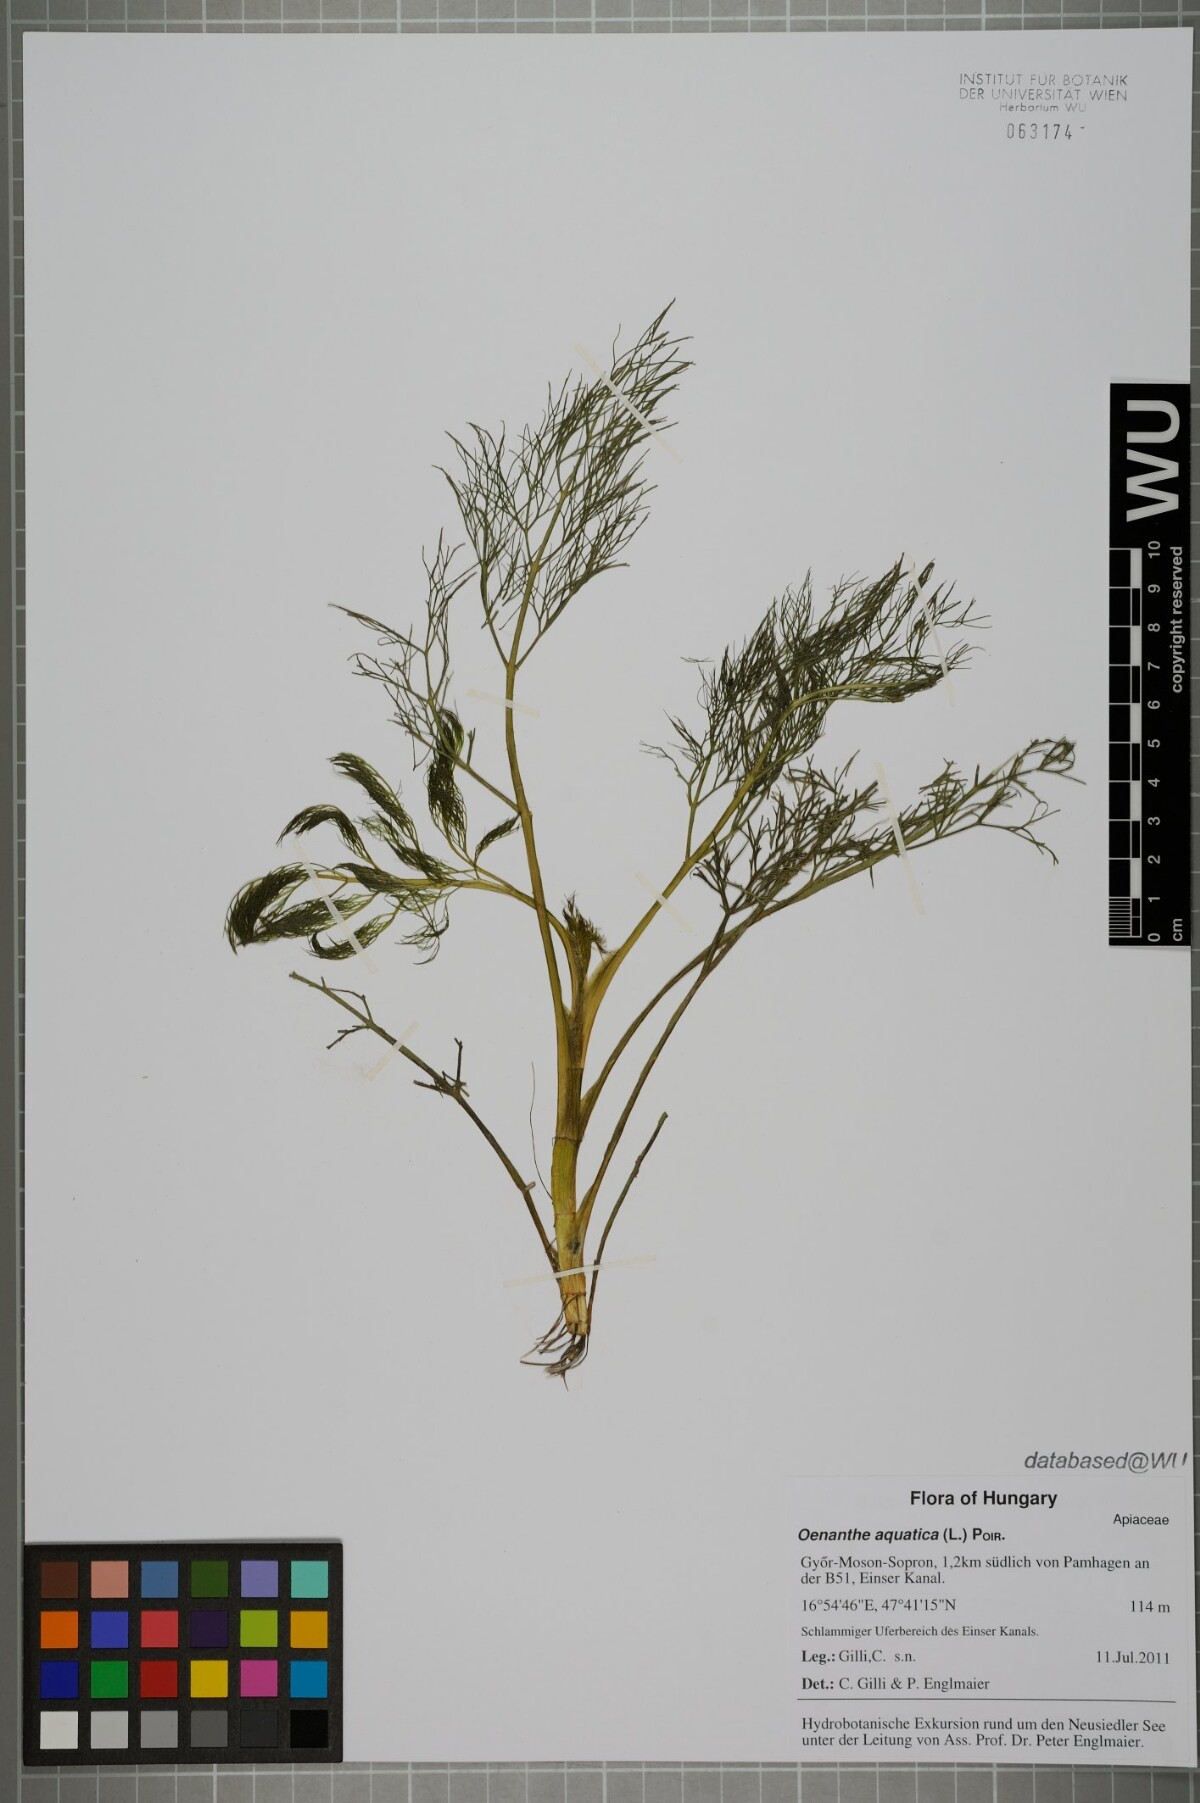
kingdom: Plantae
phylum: Tracheophyta
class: Magnoliopsida
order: Apiales
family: Apiaceae
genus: Oenanthe
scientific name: Oenanthe aquatica
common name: Fine-leaved water-dropwort
